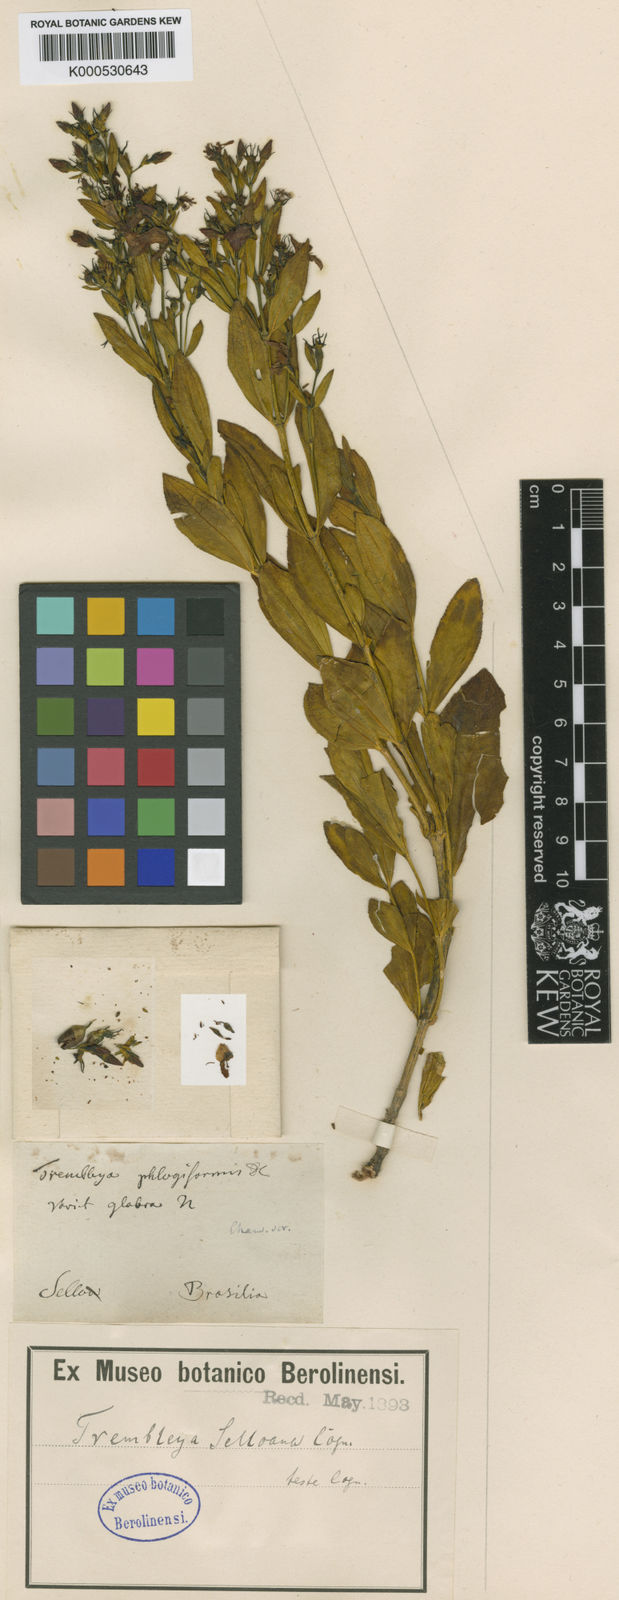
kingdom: Plantae
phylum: Tracheophyta
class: Magnoliopsida
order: Myrtales
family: Melastomataceae
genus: Microlicia
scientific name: Microlicia phlogiformis
